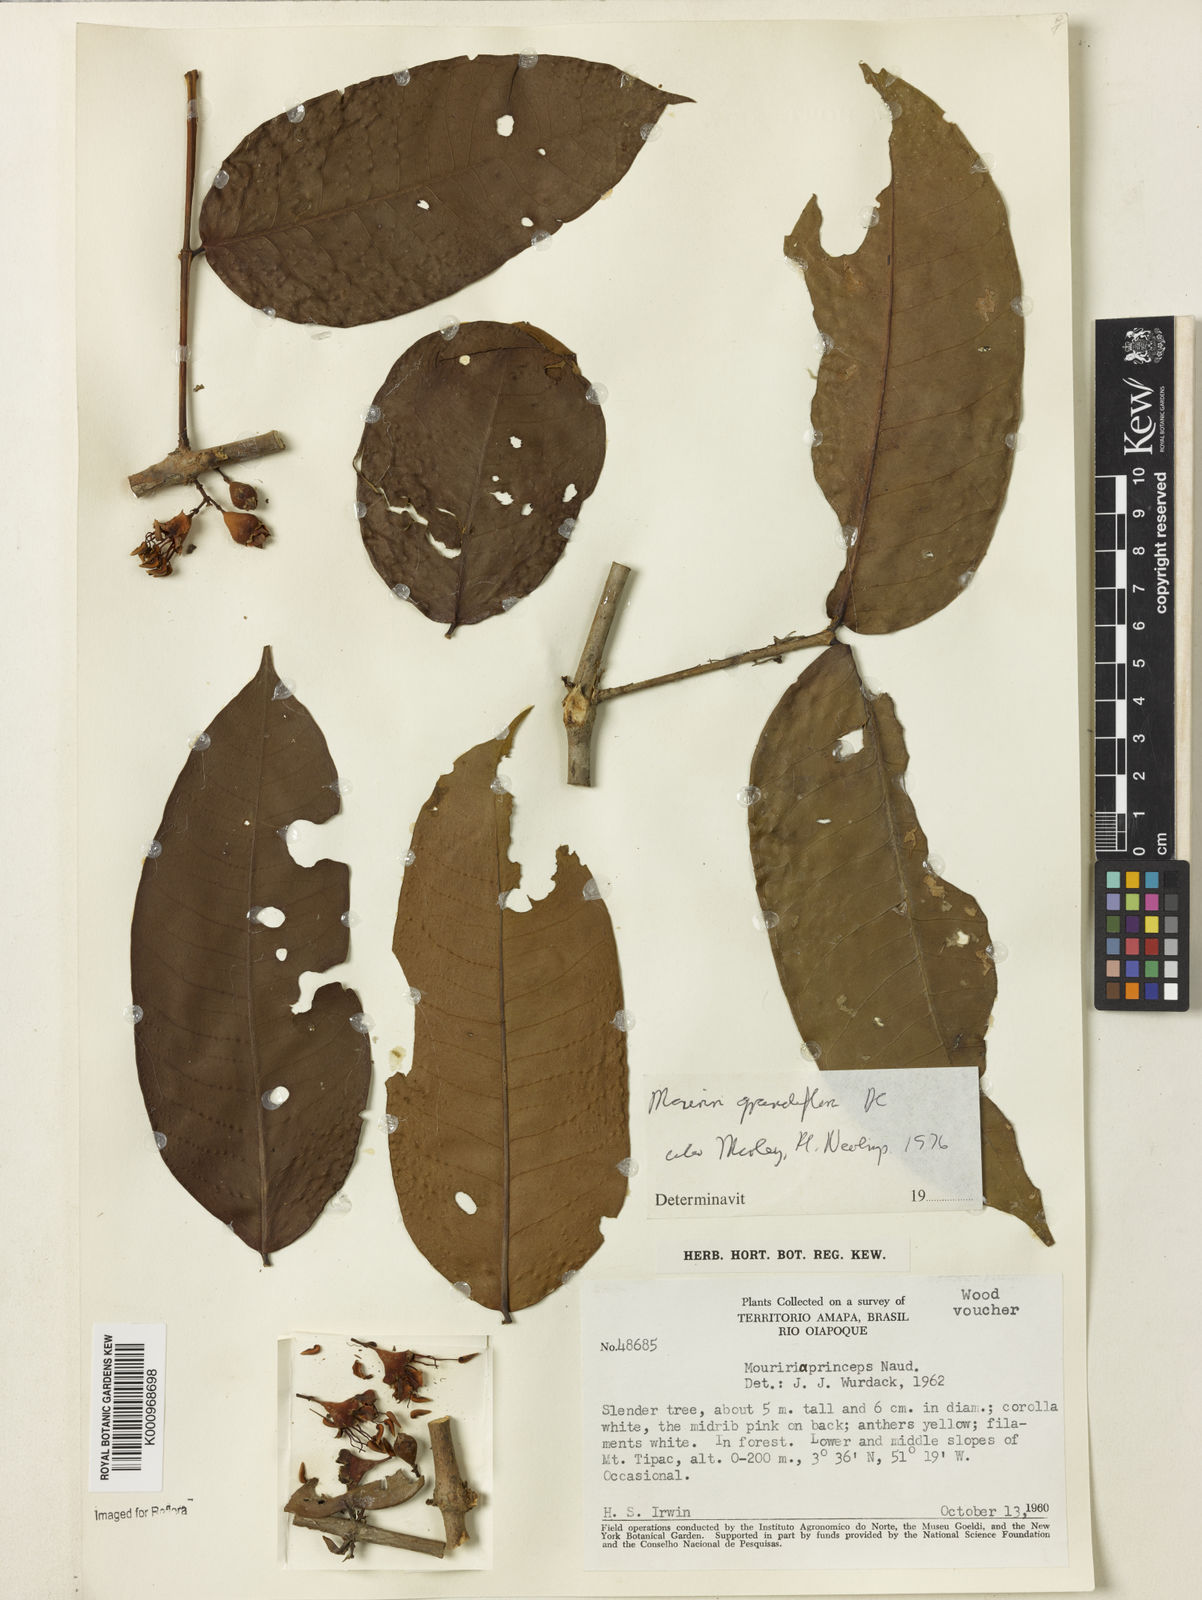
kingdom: Plantae
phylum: Tracheophyta
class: Magnoliopsida
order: Myrtales
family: Melastomataceae
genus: Mouriri
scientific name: Mouriri grandiflora
